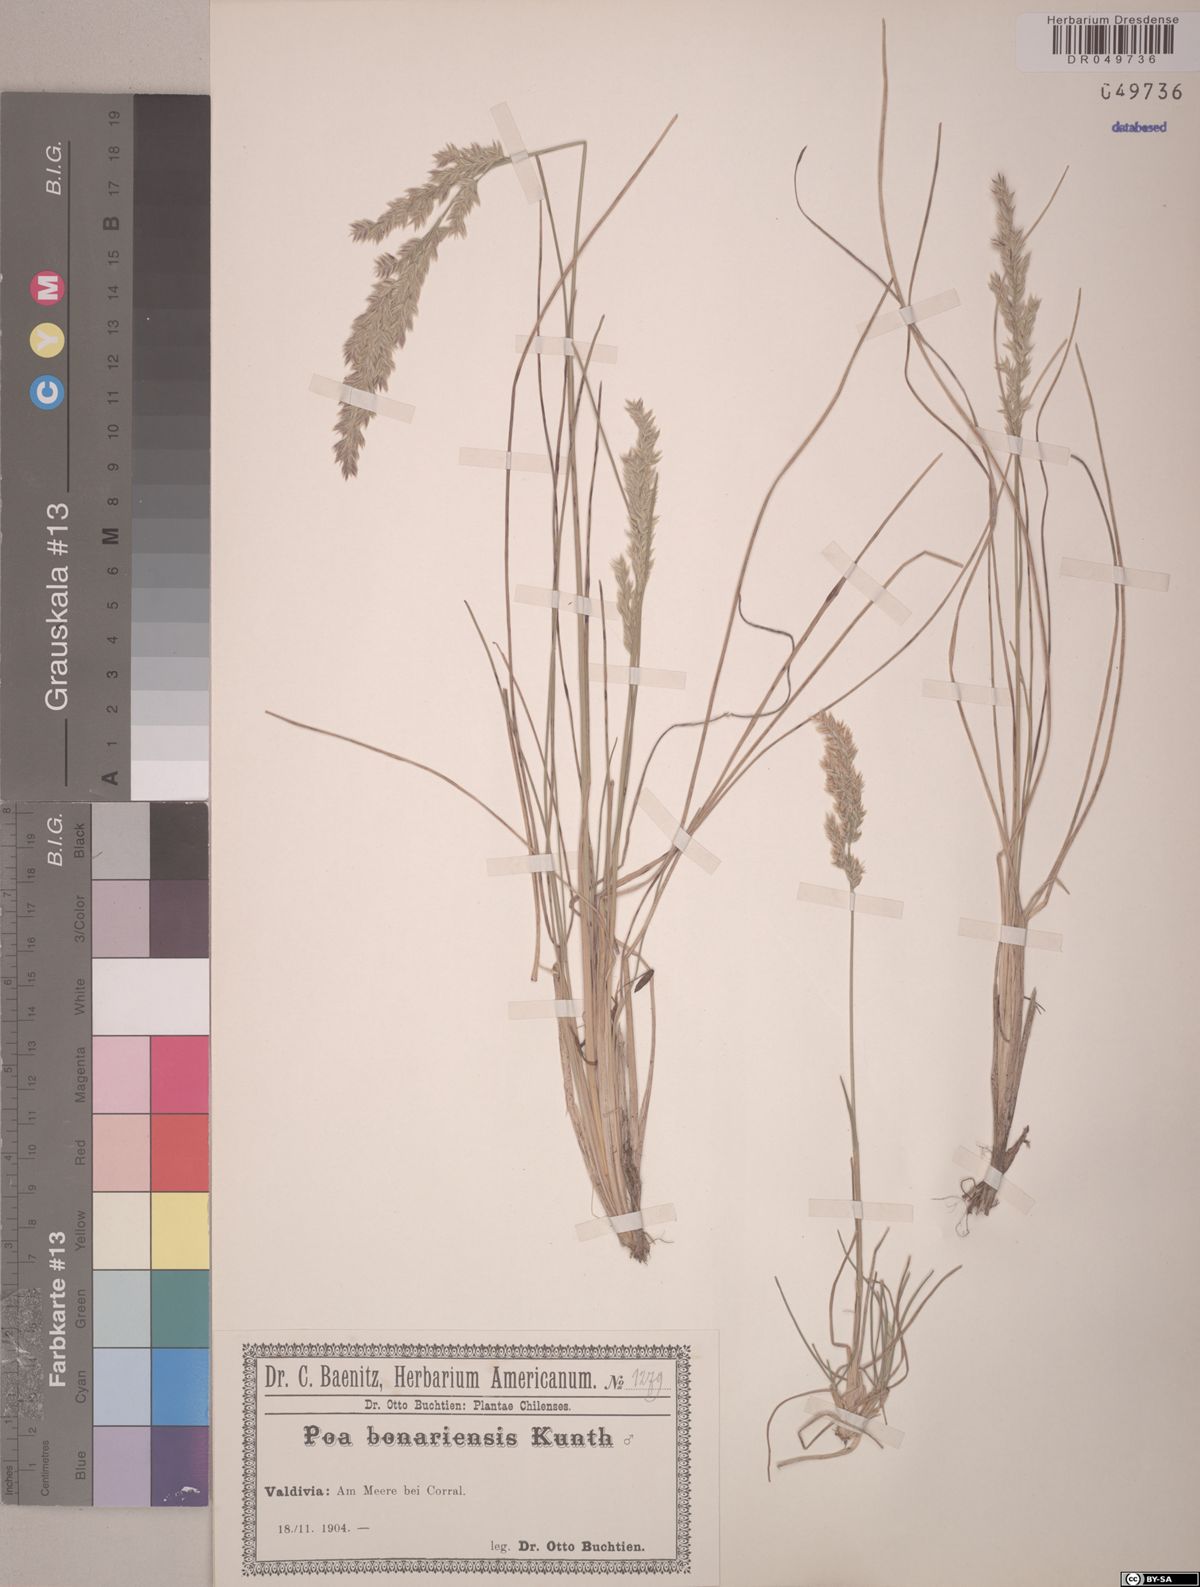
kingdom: Plantae
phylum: Tracheophyta
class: Liliopsida
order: Poales
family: Poaceae
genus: Poa
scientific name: Poa bonariensis
